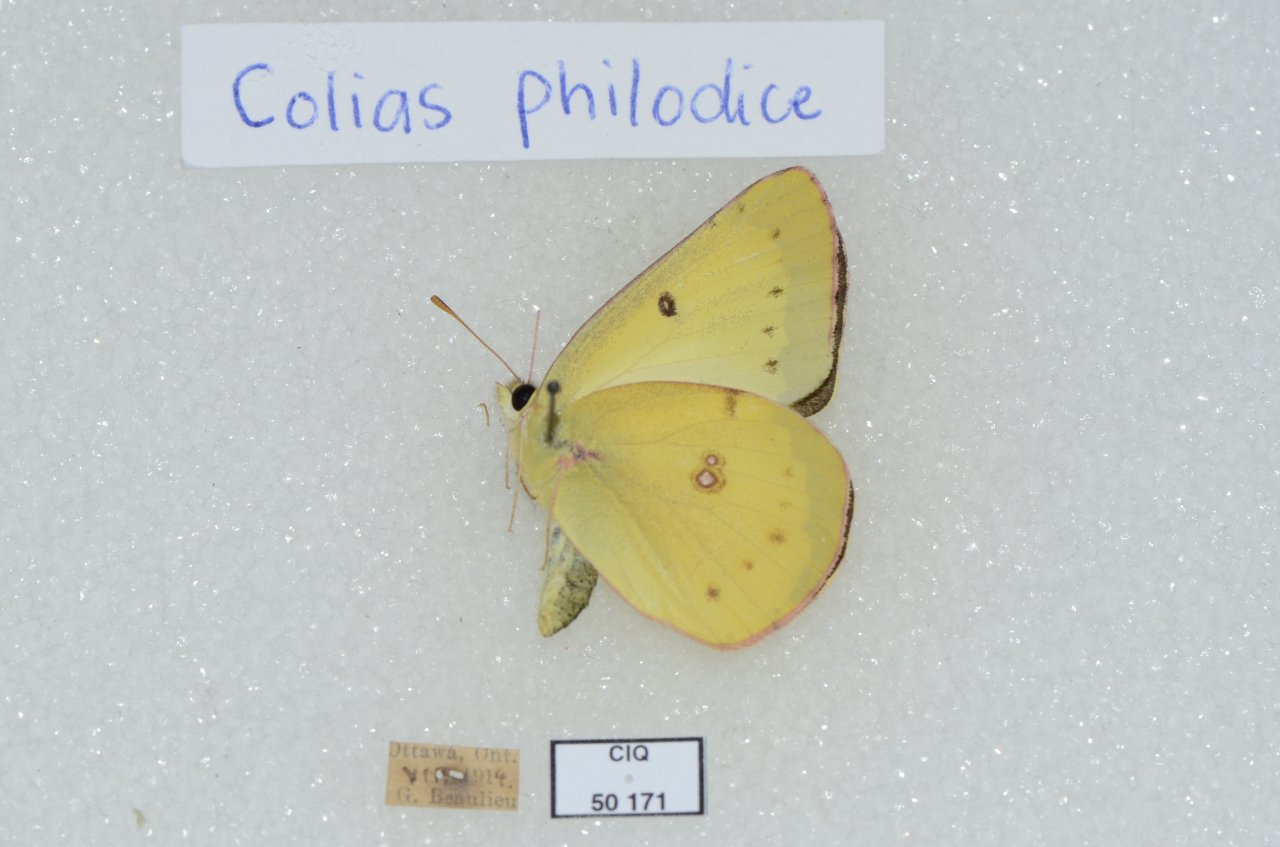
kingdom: Animalia
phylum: Arthropoda
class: Insecta
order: Lepidoptera
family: Pieridae
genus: Colias
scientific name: Colias philodice
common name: Clouded Sulphur
